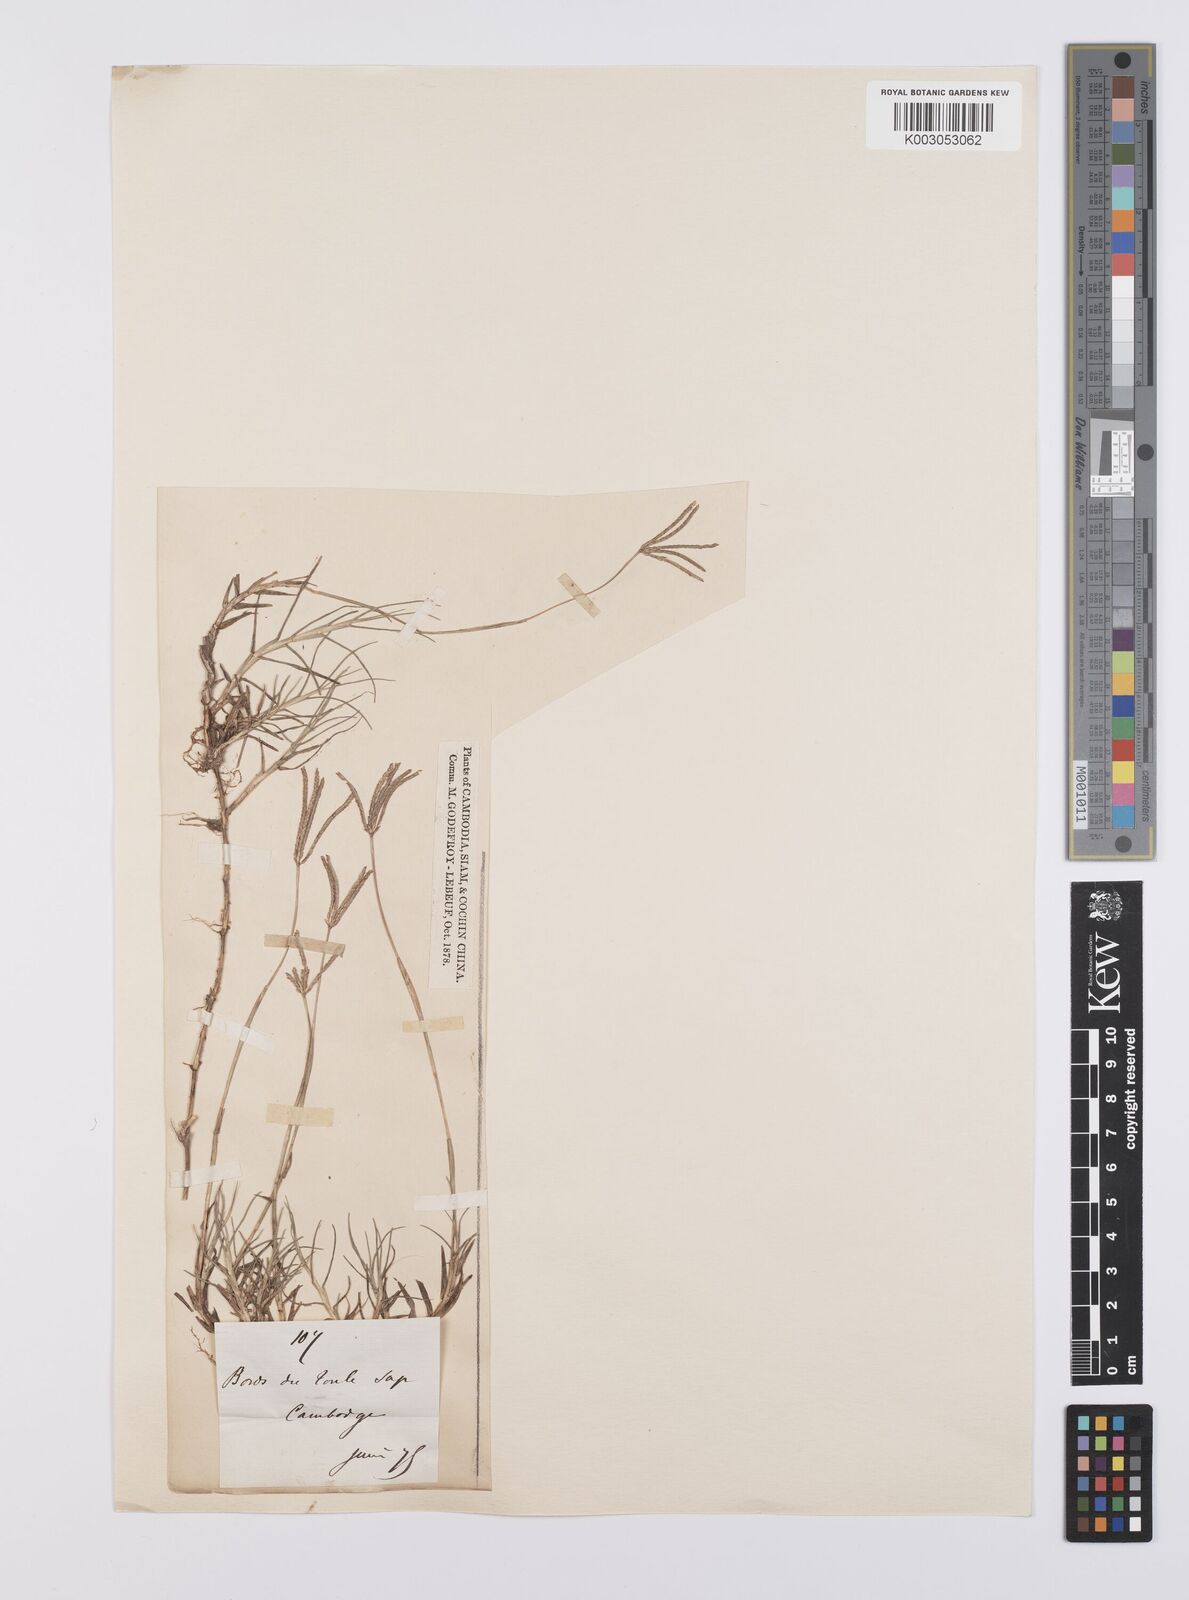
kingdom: Plantae
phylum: Tracheophyta
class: Liliopsida
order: Poales
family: Poaceae
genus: Cynodon
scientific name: Cynodon dactylon
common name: Bermuda grass
